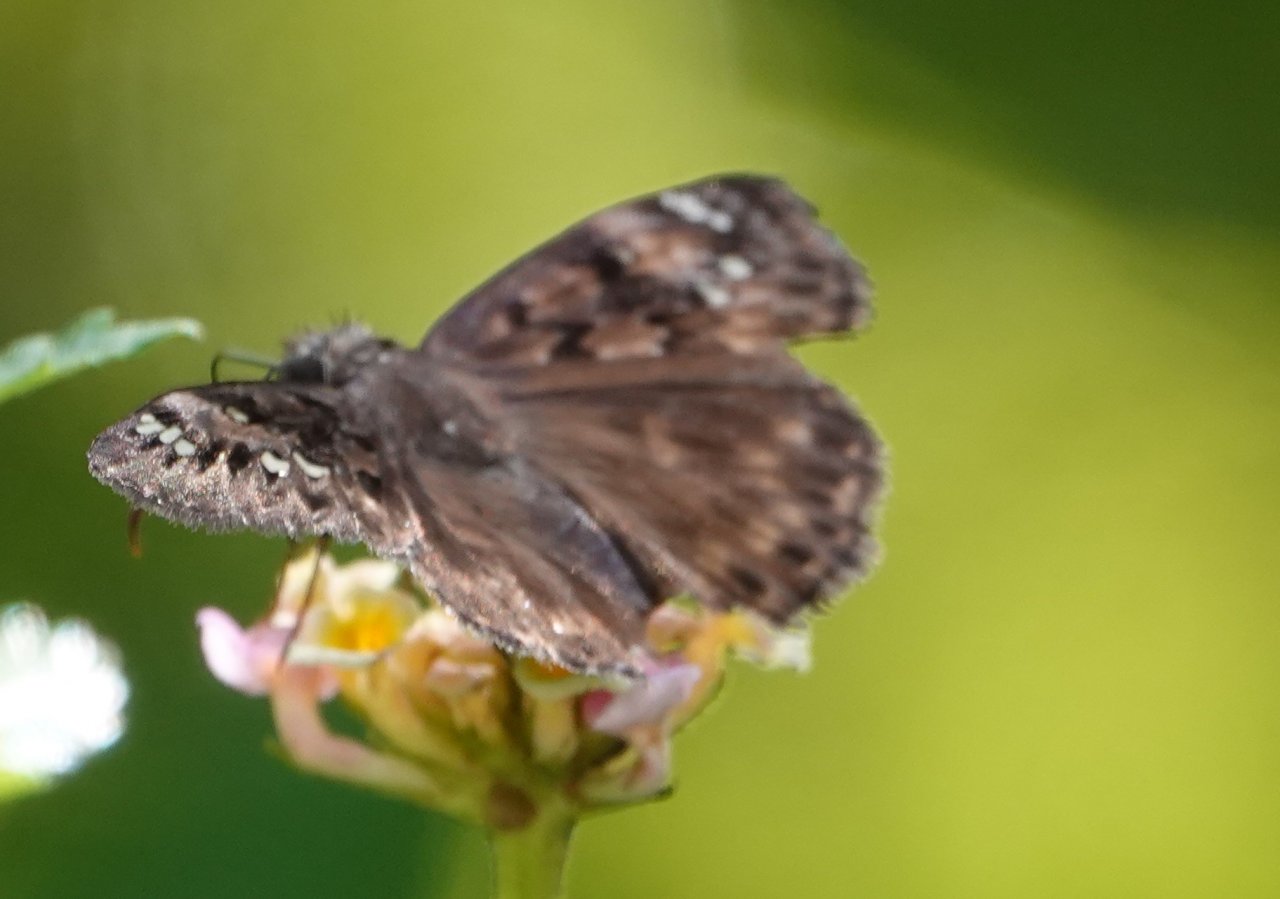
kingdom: Animalia
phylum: Arthropoda
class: Insecta
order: Lepidoptera
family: Hesperiidae
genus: Gesta
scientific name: Gesta
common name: Horace's Duskywing
